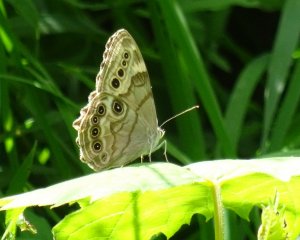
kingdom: Animalia
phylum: Arthropoda
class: Insecta
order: Lepidoptera
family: Nymphalidae
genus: Lethe
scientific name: Lethe anthedon
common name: Northern Pearly-Eye
